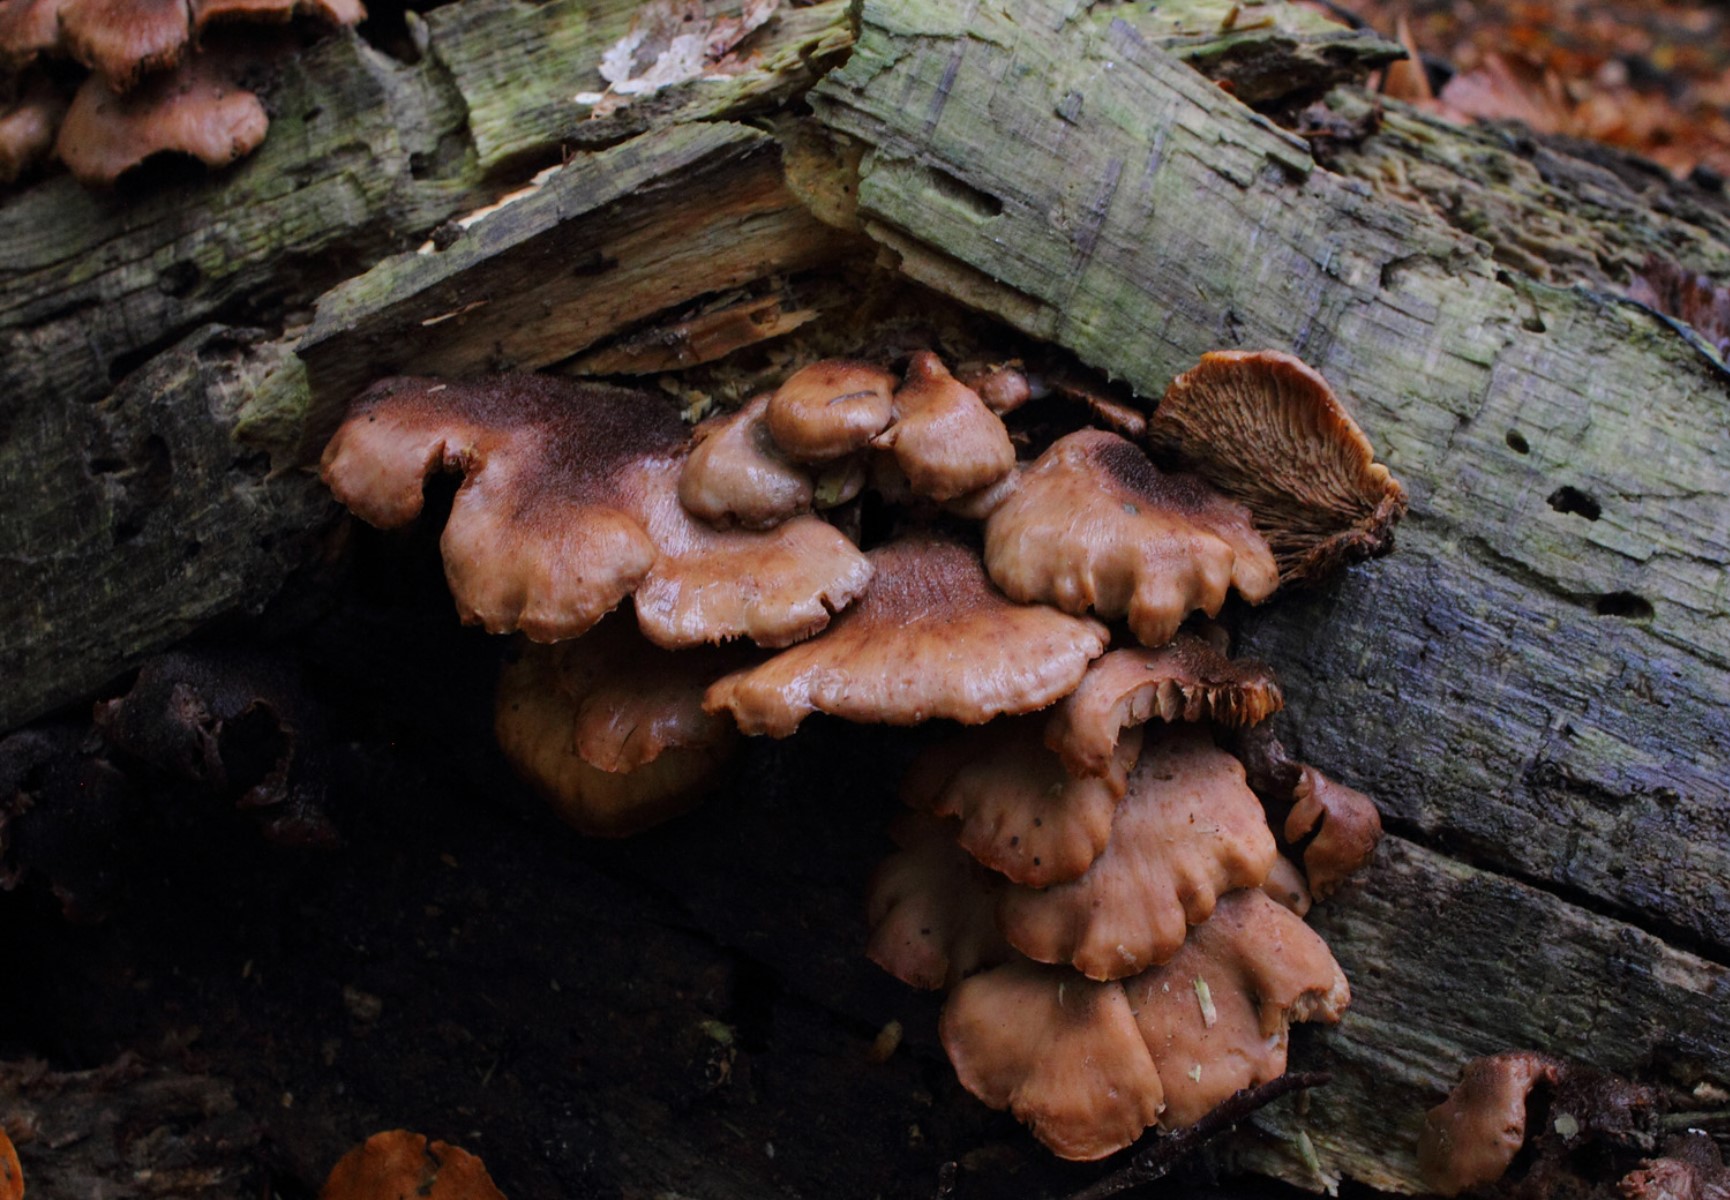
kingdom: Fungi
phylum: Basidiomycota
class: Agaricomycetes
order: Russulales
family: Auriscalpiaceae
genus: Lentinellus
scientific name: Lentinellus ursinus
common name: børstehåret savbladhat
